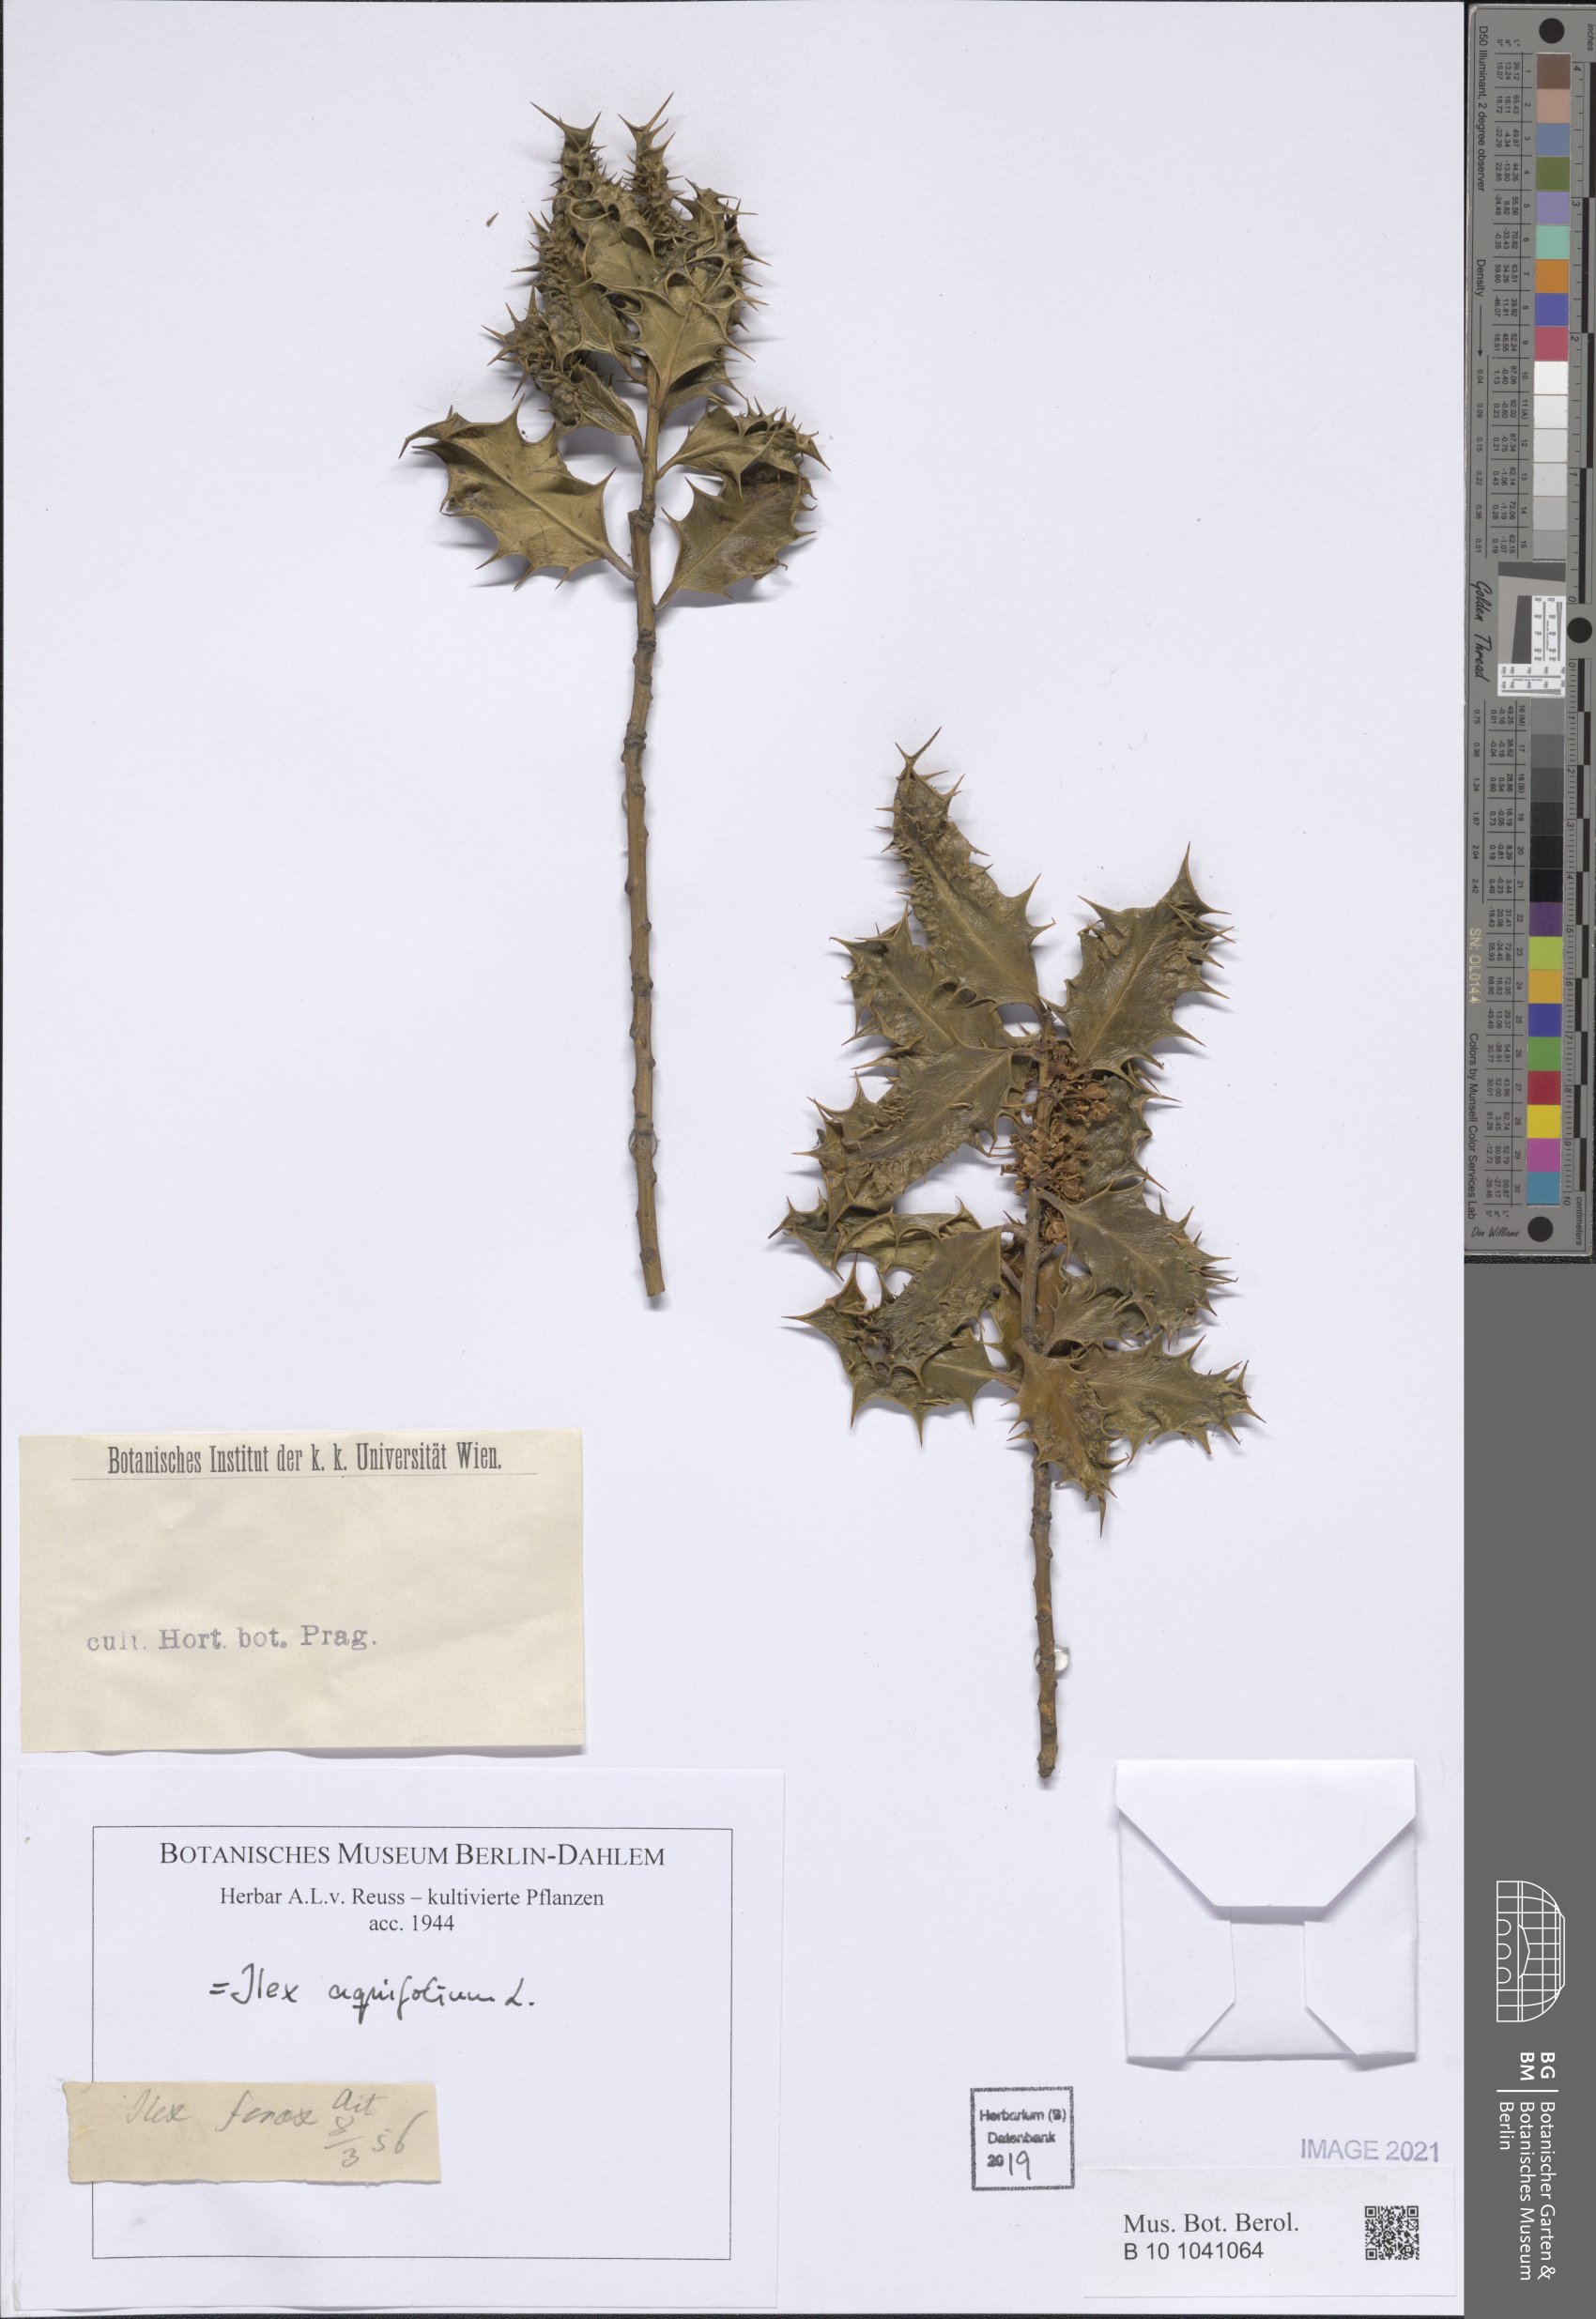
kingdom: Plantae
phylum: Tracheophyta
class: Magnoliopsida
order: Aquifoliales
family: Aquifoliaceae
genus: Ilex
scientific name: Ilex aquifolium
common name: English holly
